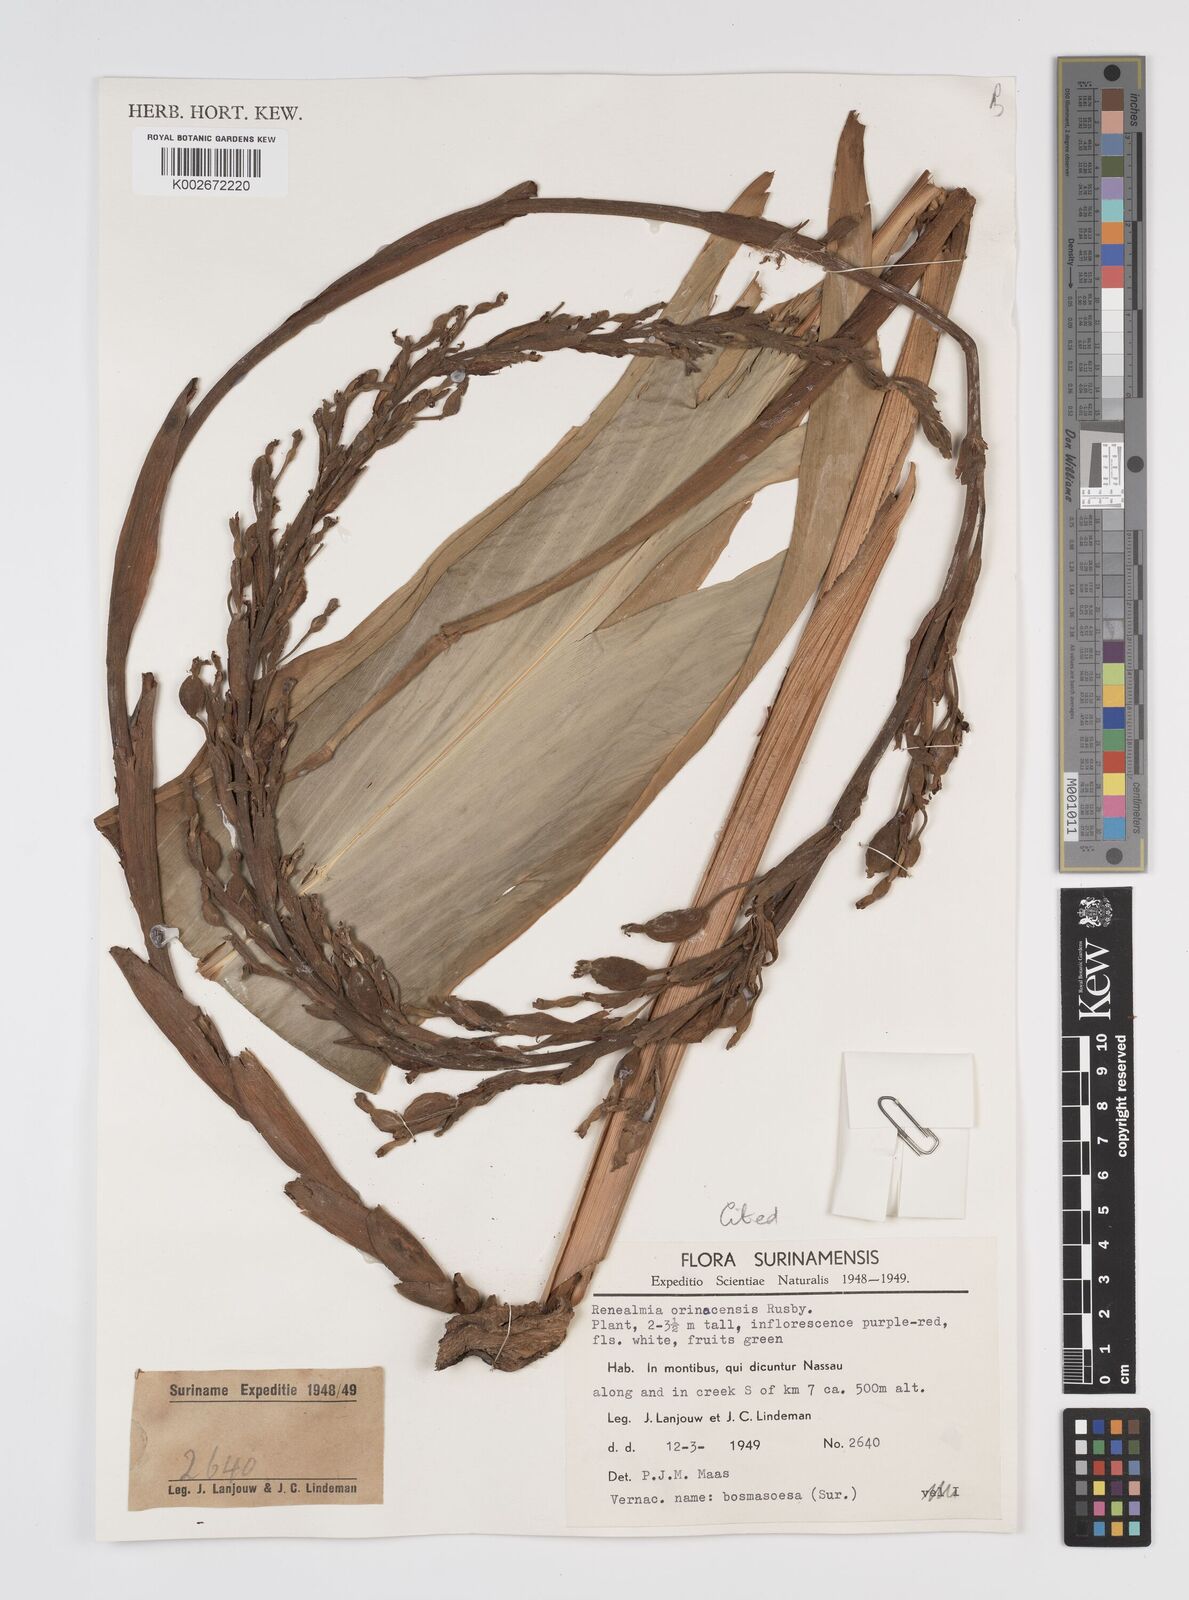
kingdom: Plantae
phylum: Tracheophyta
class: Liliopsida
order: Zingiberales
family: Zingiberaceae
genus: Renealmia
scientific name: Renealmia orinocensis
